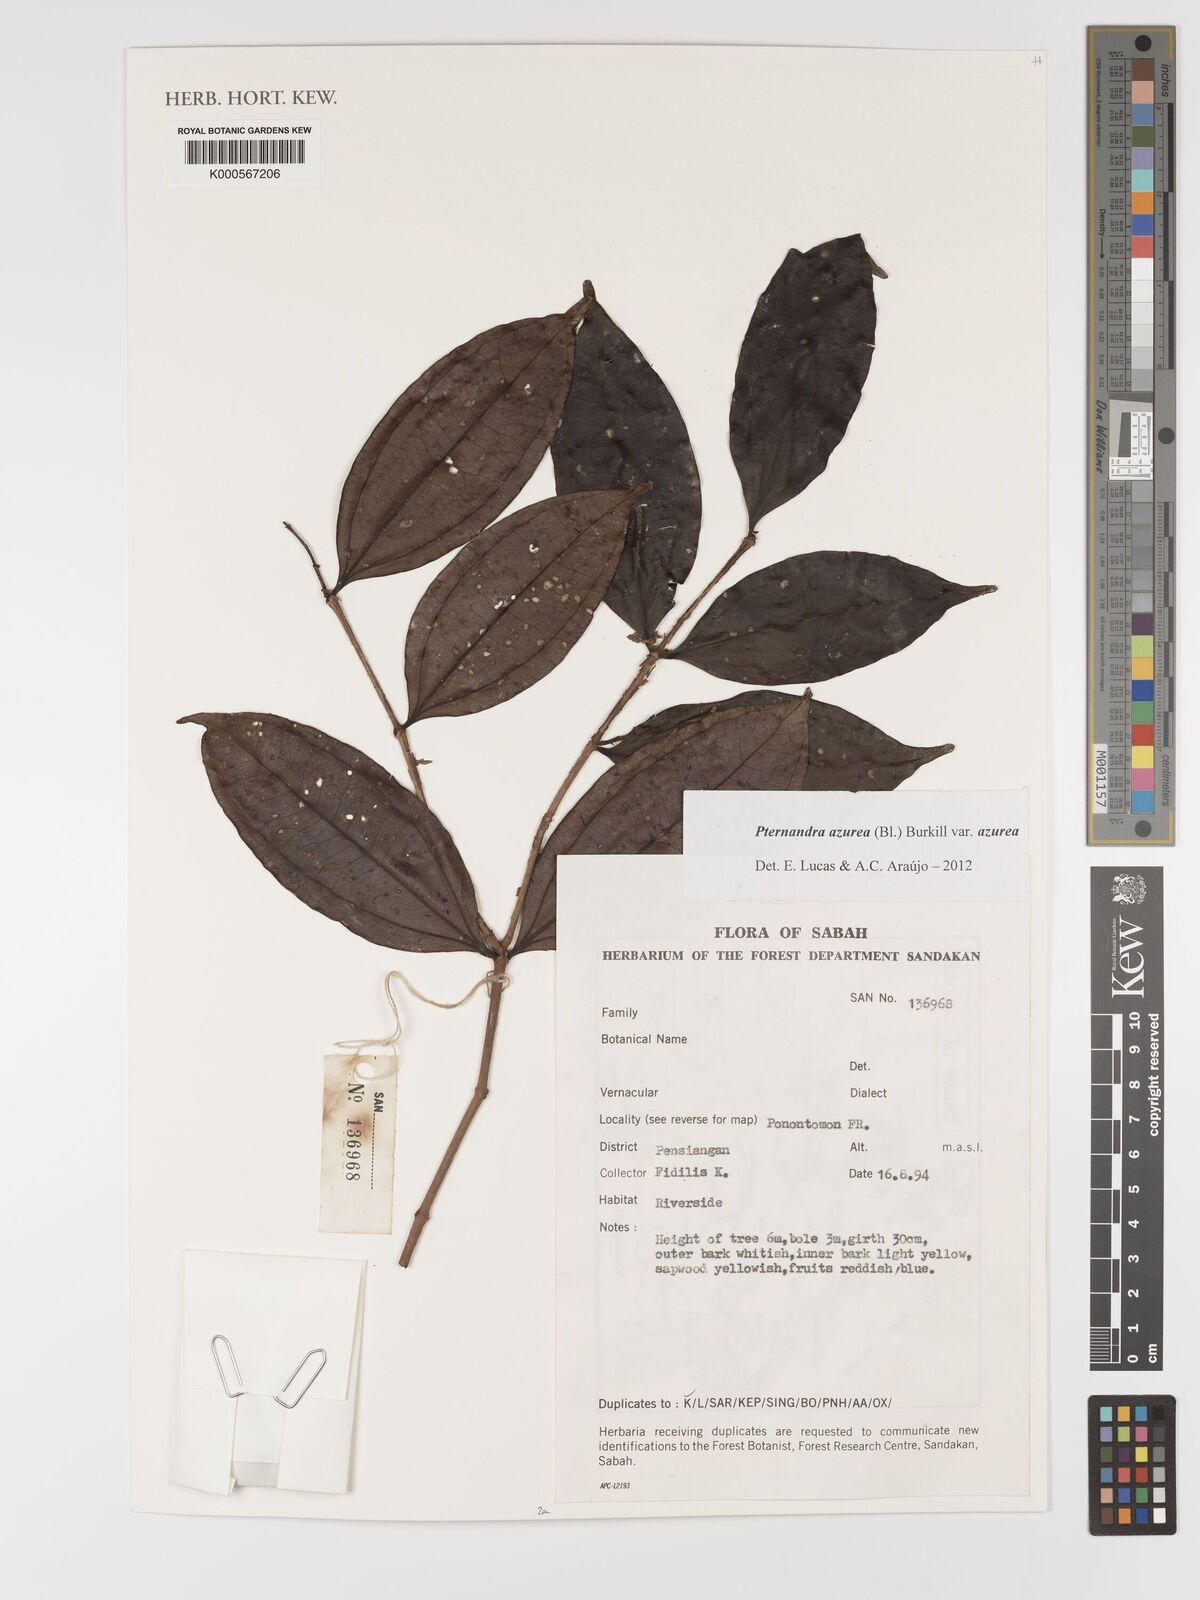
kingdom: Plantae
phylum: Tracheophyta
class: Magnoliopsida
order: Myrtales
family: Melastomataceae
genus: Pternandra
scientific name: Pternandra azurea
